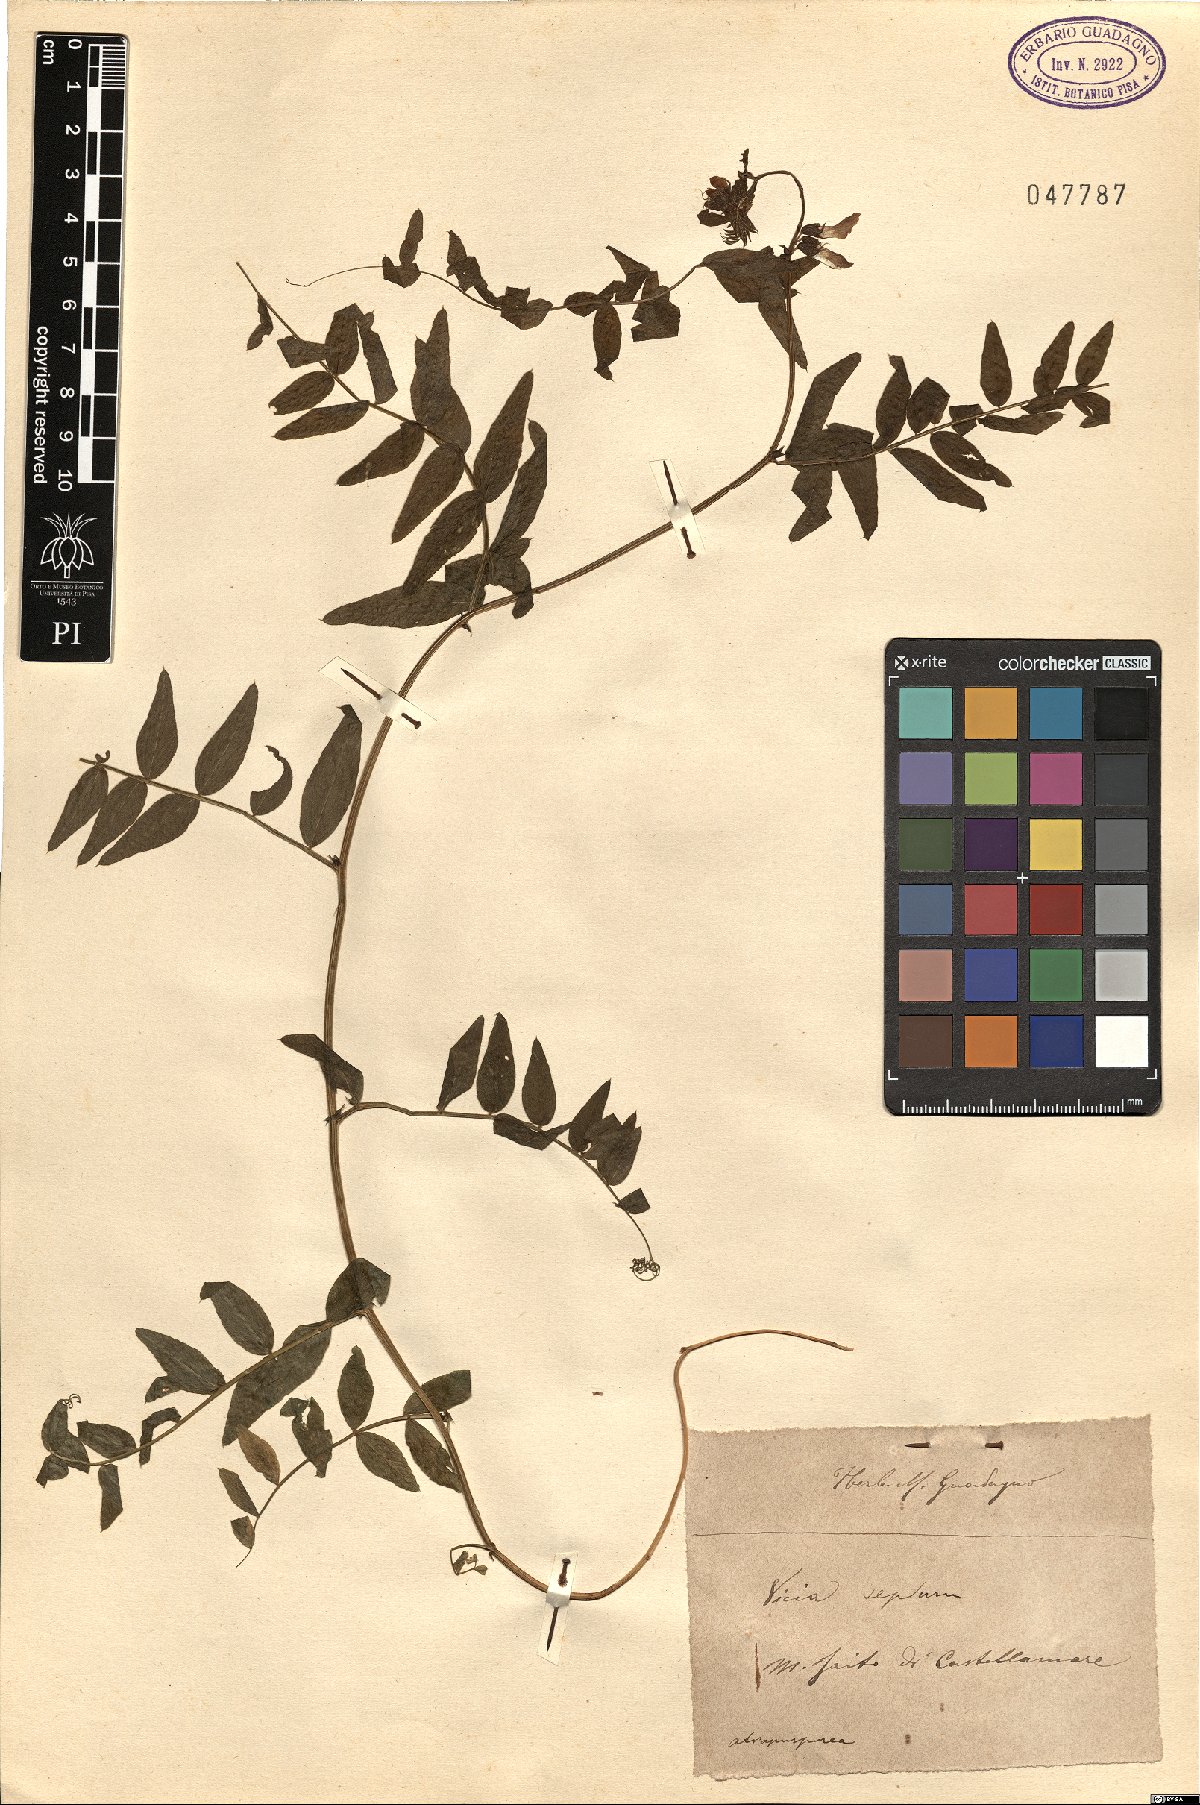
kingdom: Plantae
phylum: Tracheophyta
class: Magnoliopsida
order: Fabales
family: Fabaceae
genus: Vicia
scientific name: Vicia sepium
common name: Bush vetch
